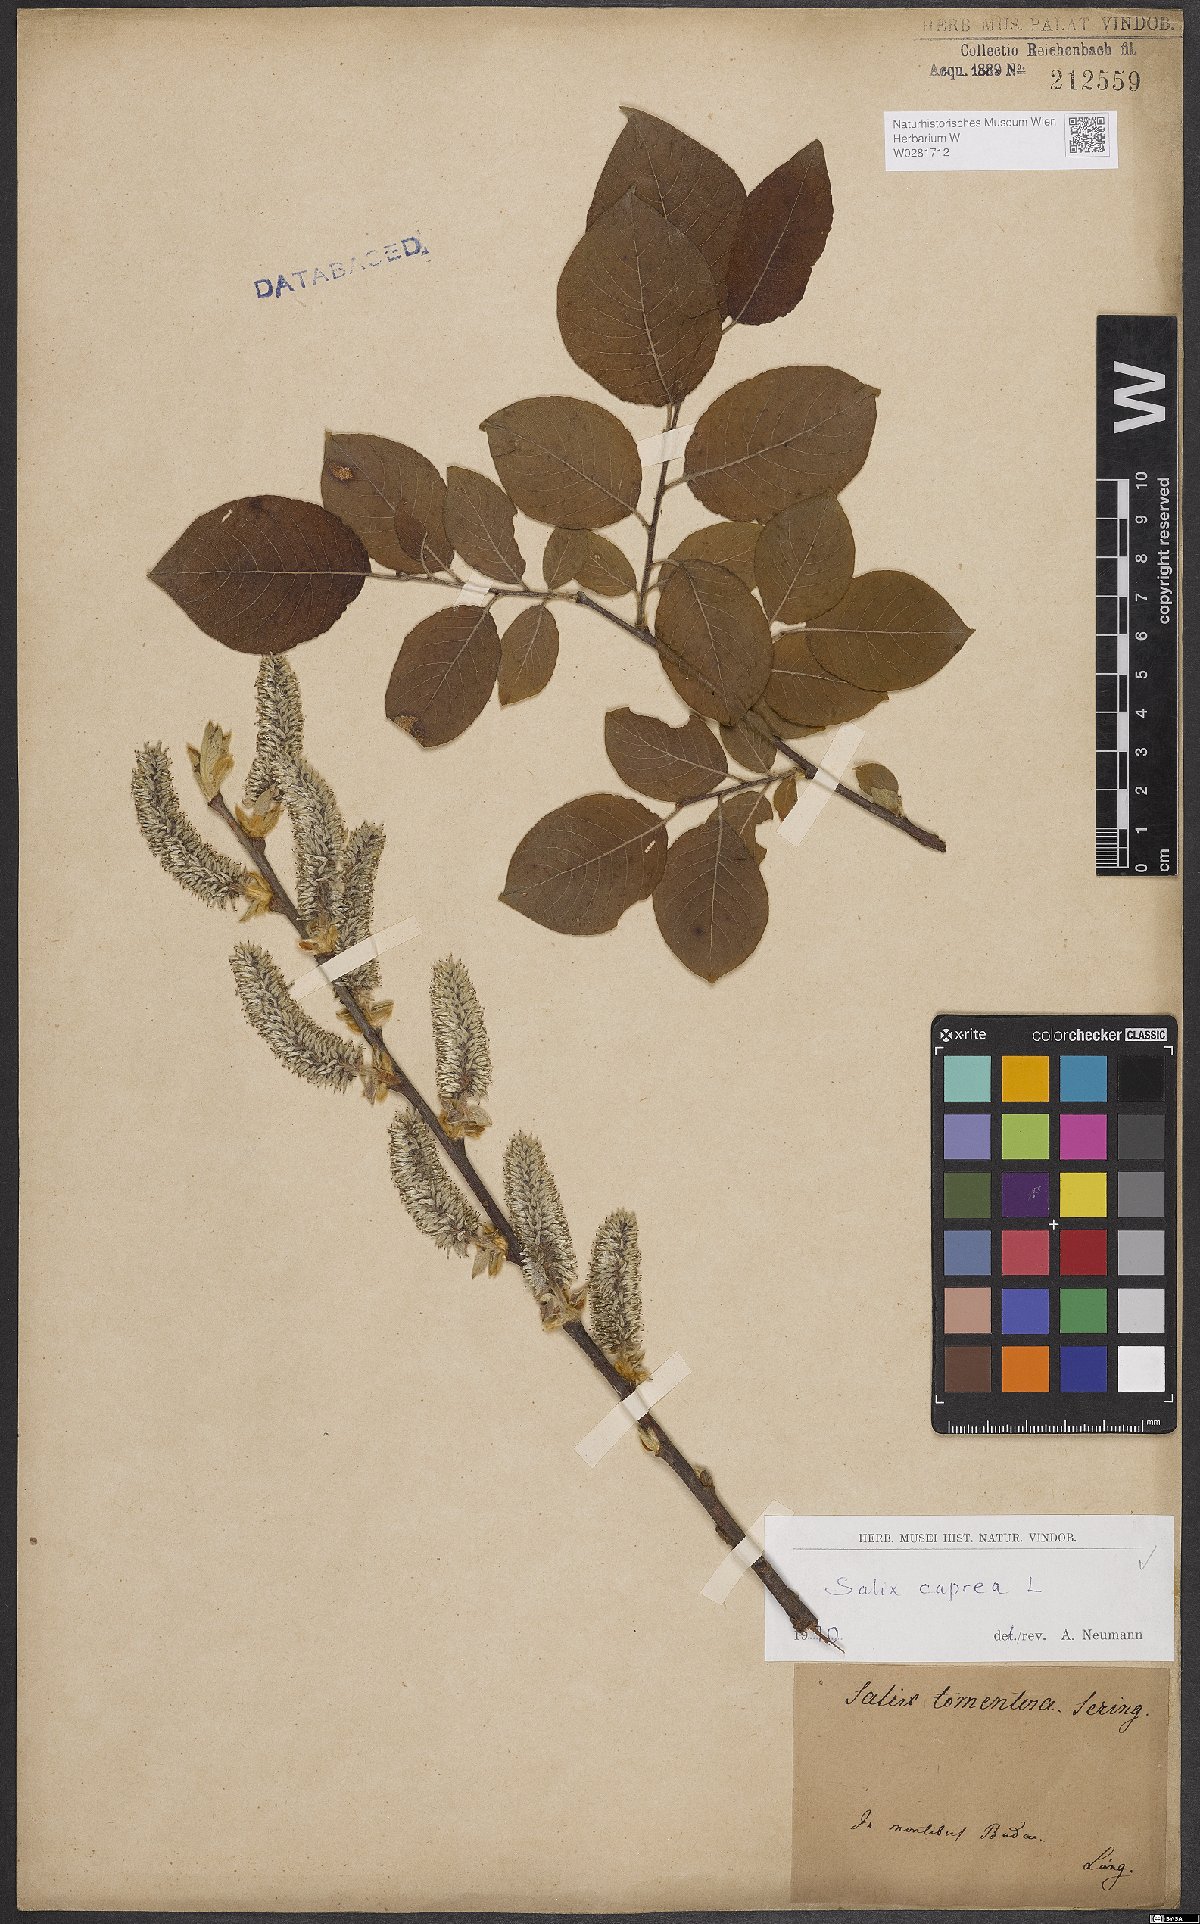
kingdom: Plantae
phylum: Tracheophyta
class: Magnoliopsida
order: Malpighiales
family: Salicaceae
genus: Salix
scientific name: Salix caprea
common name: Goat willow
